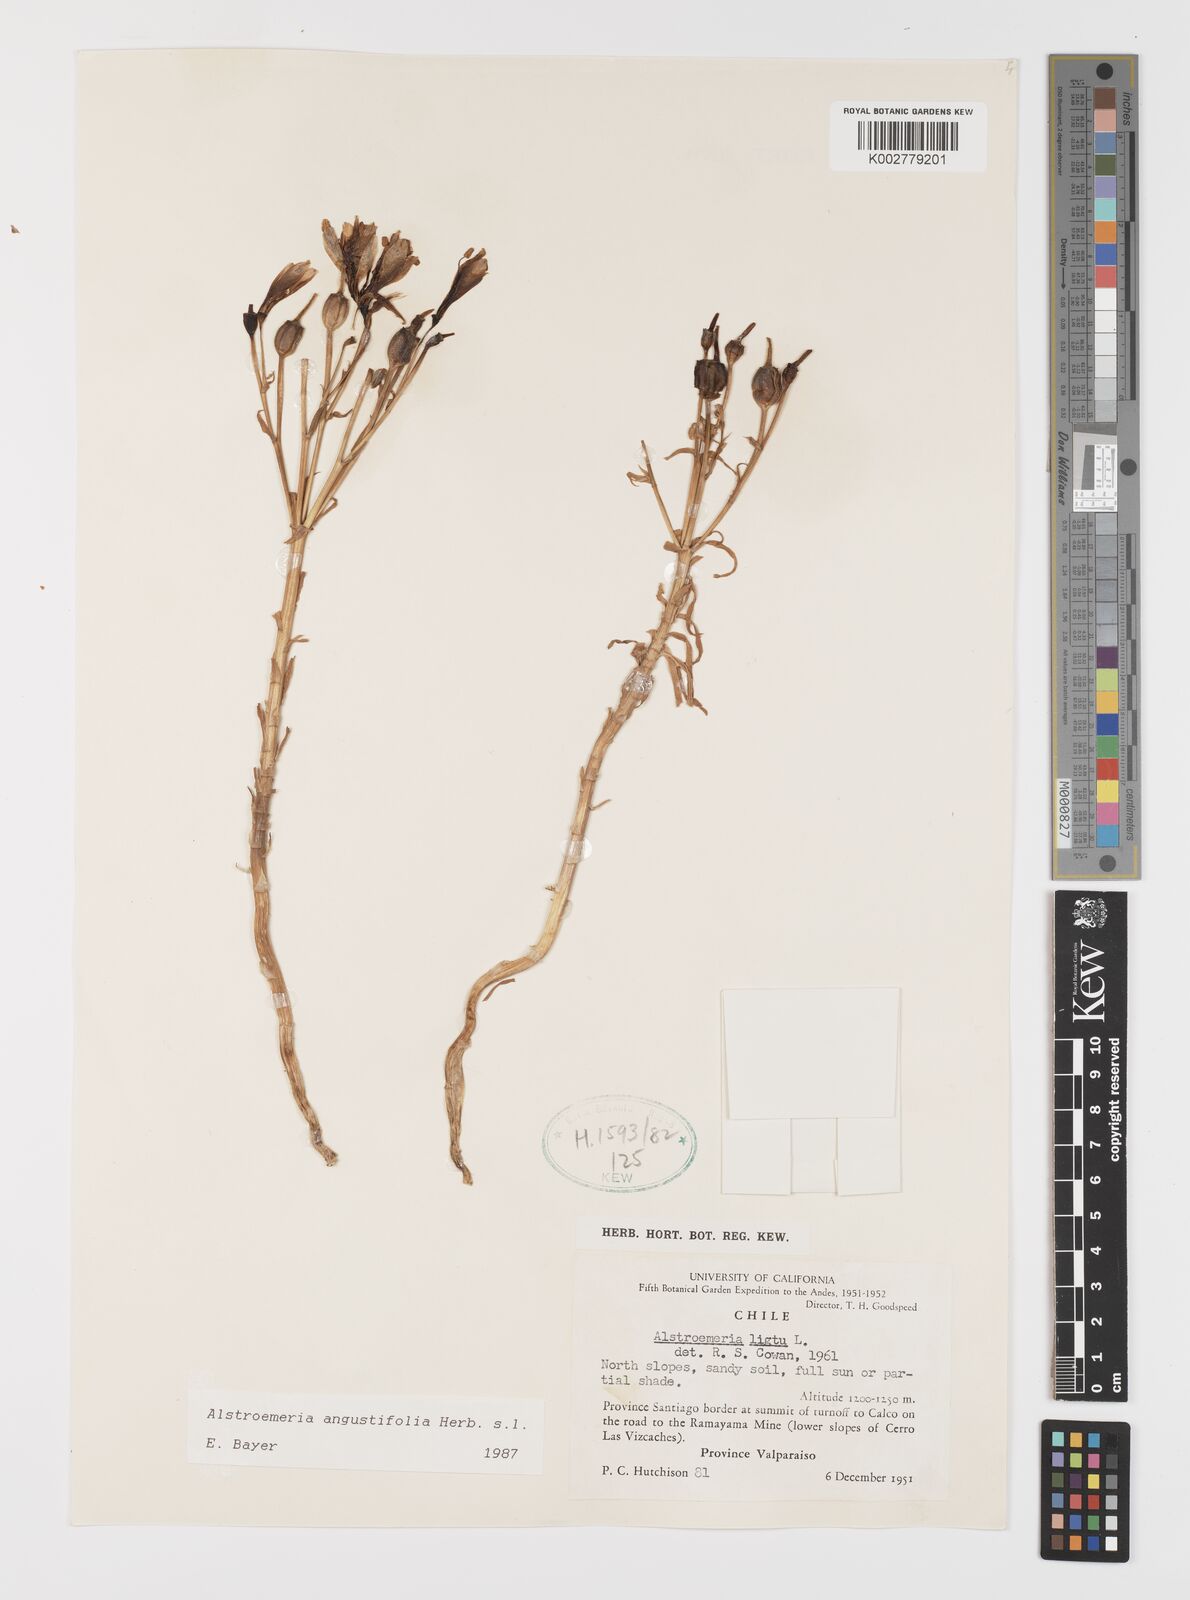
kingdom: Plantae
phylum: Tracheophyta
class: Liliopsida
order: Liliales
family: Alstroemeriaceae
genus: Alstroemeria
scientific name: Alstroemeria angustifolia
